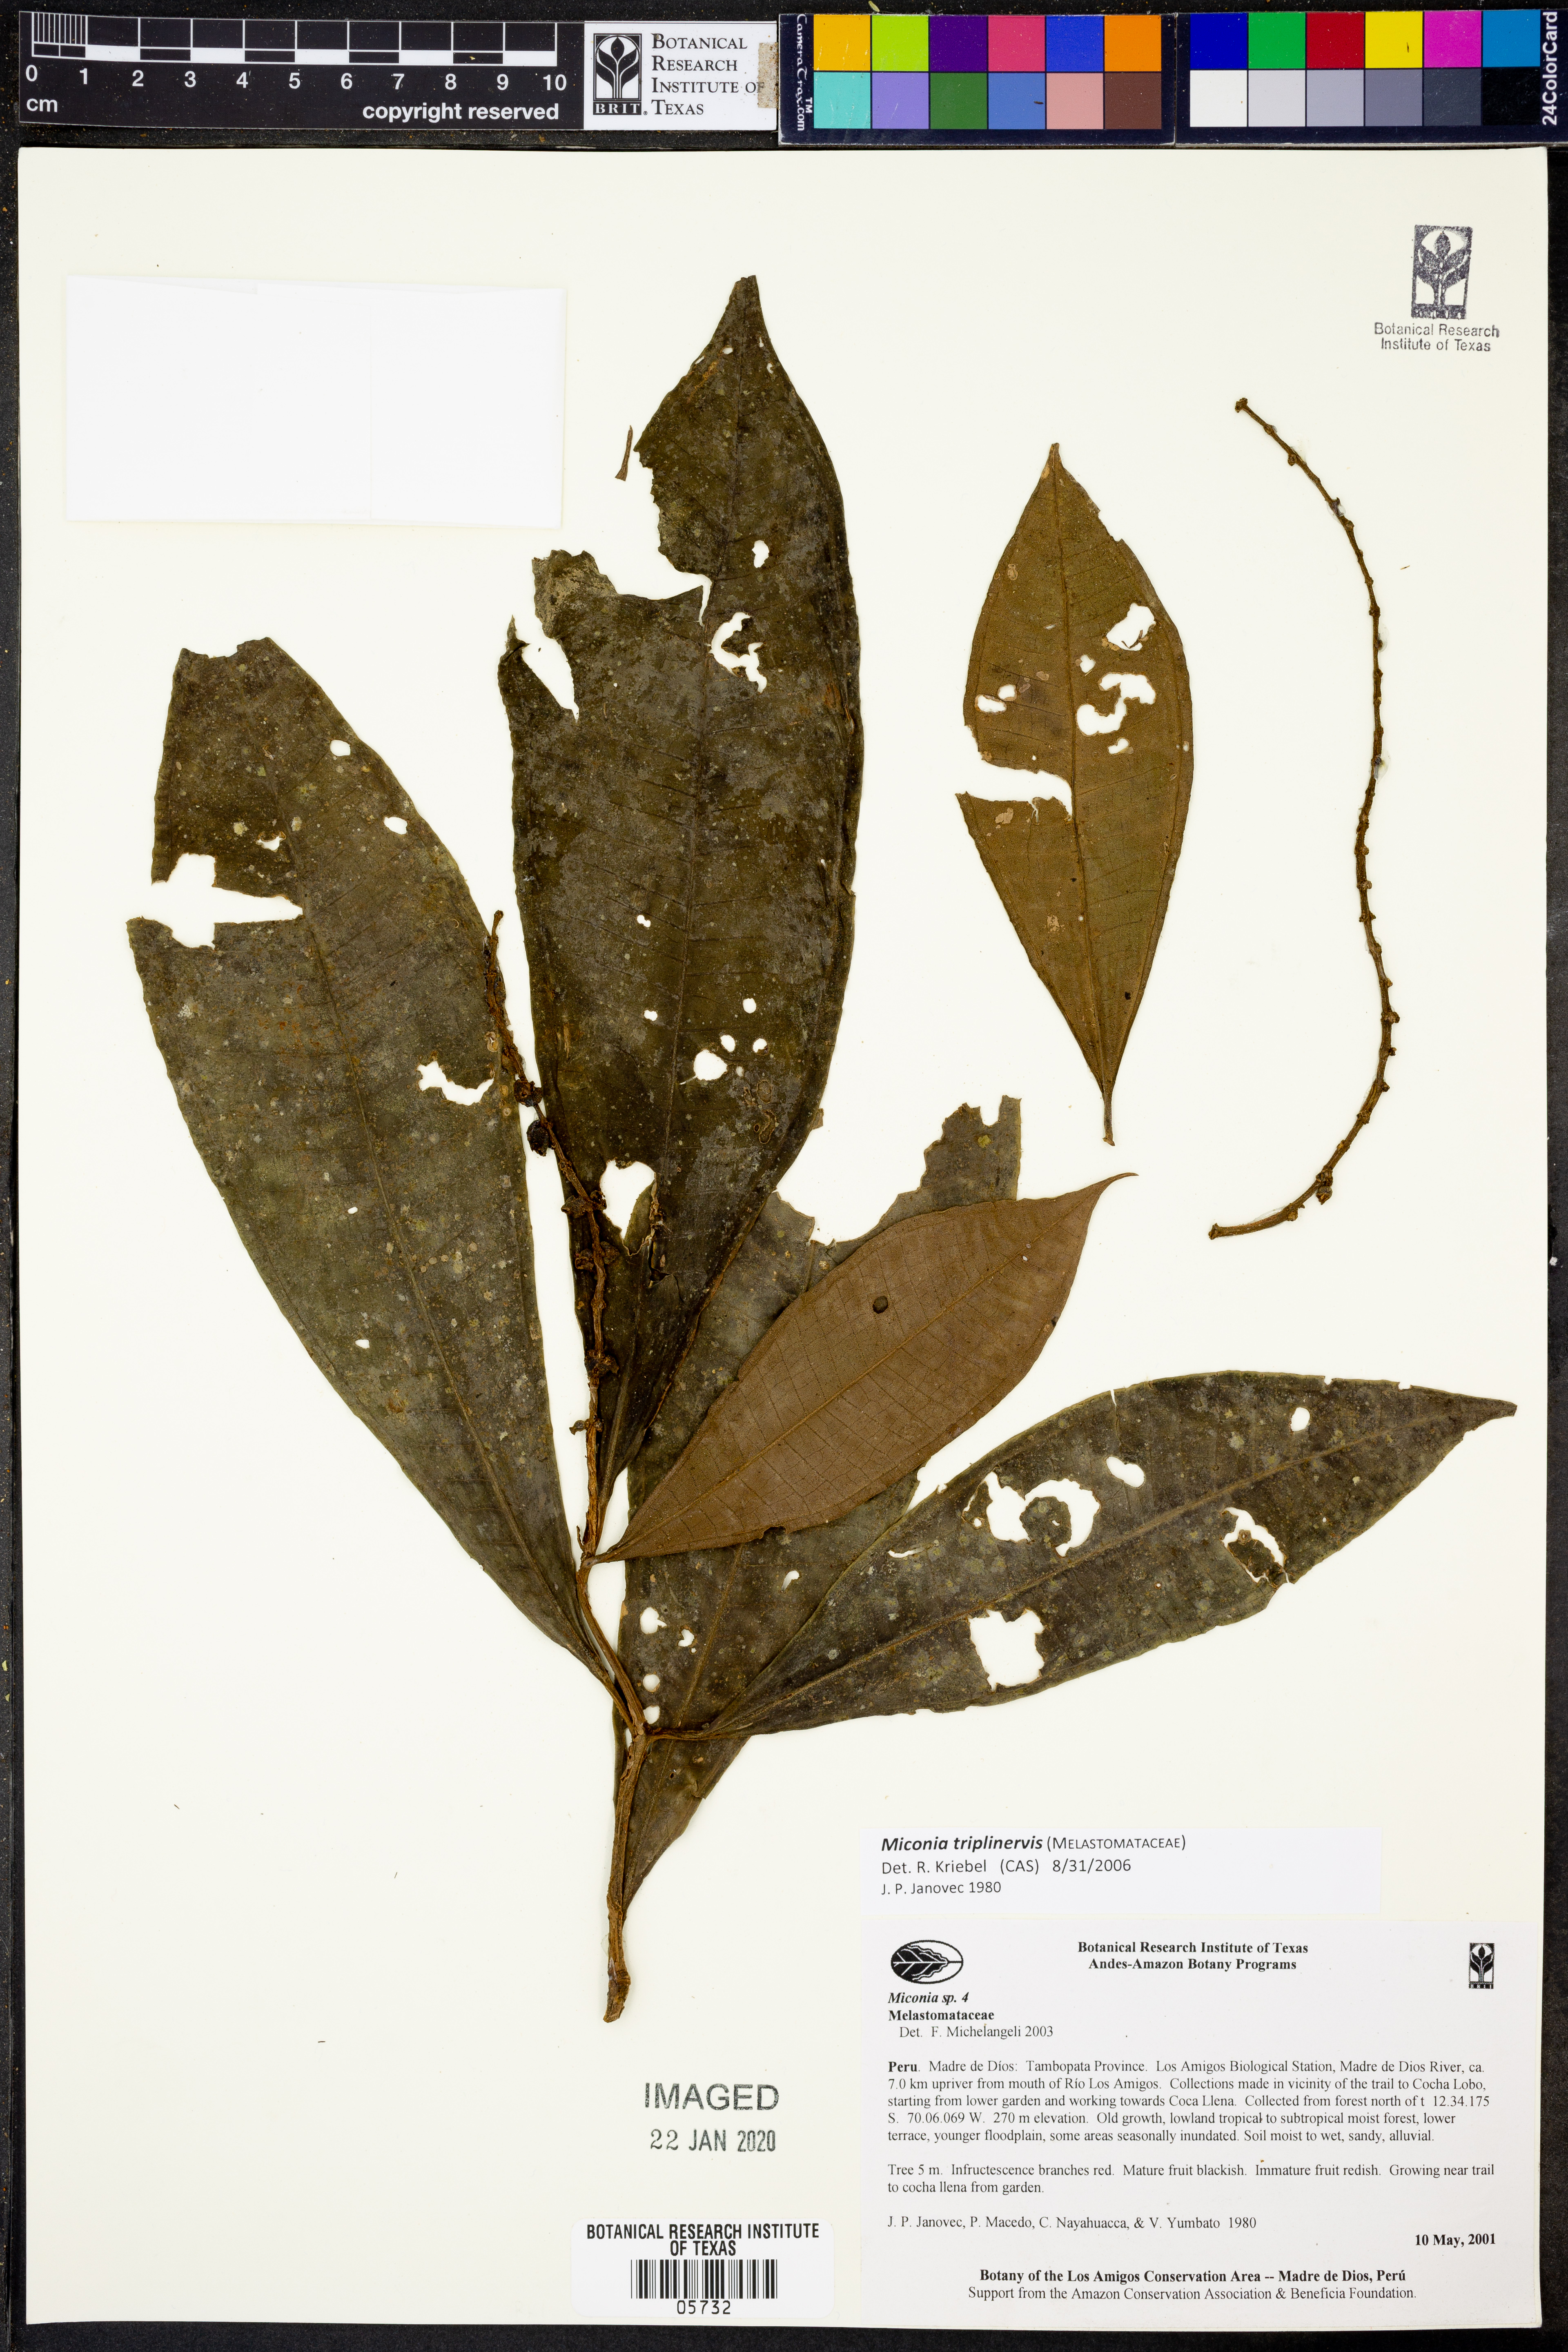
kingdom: Plantae
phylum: Tracheophyta
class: Magnoliopsida
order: Myrtales
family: Melastomataceae
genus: Miconia
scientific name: Miconia triplinervis
